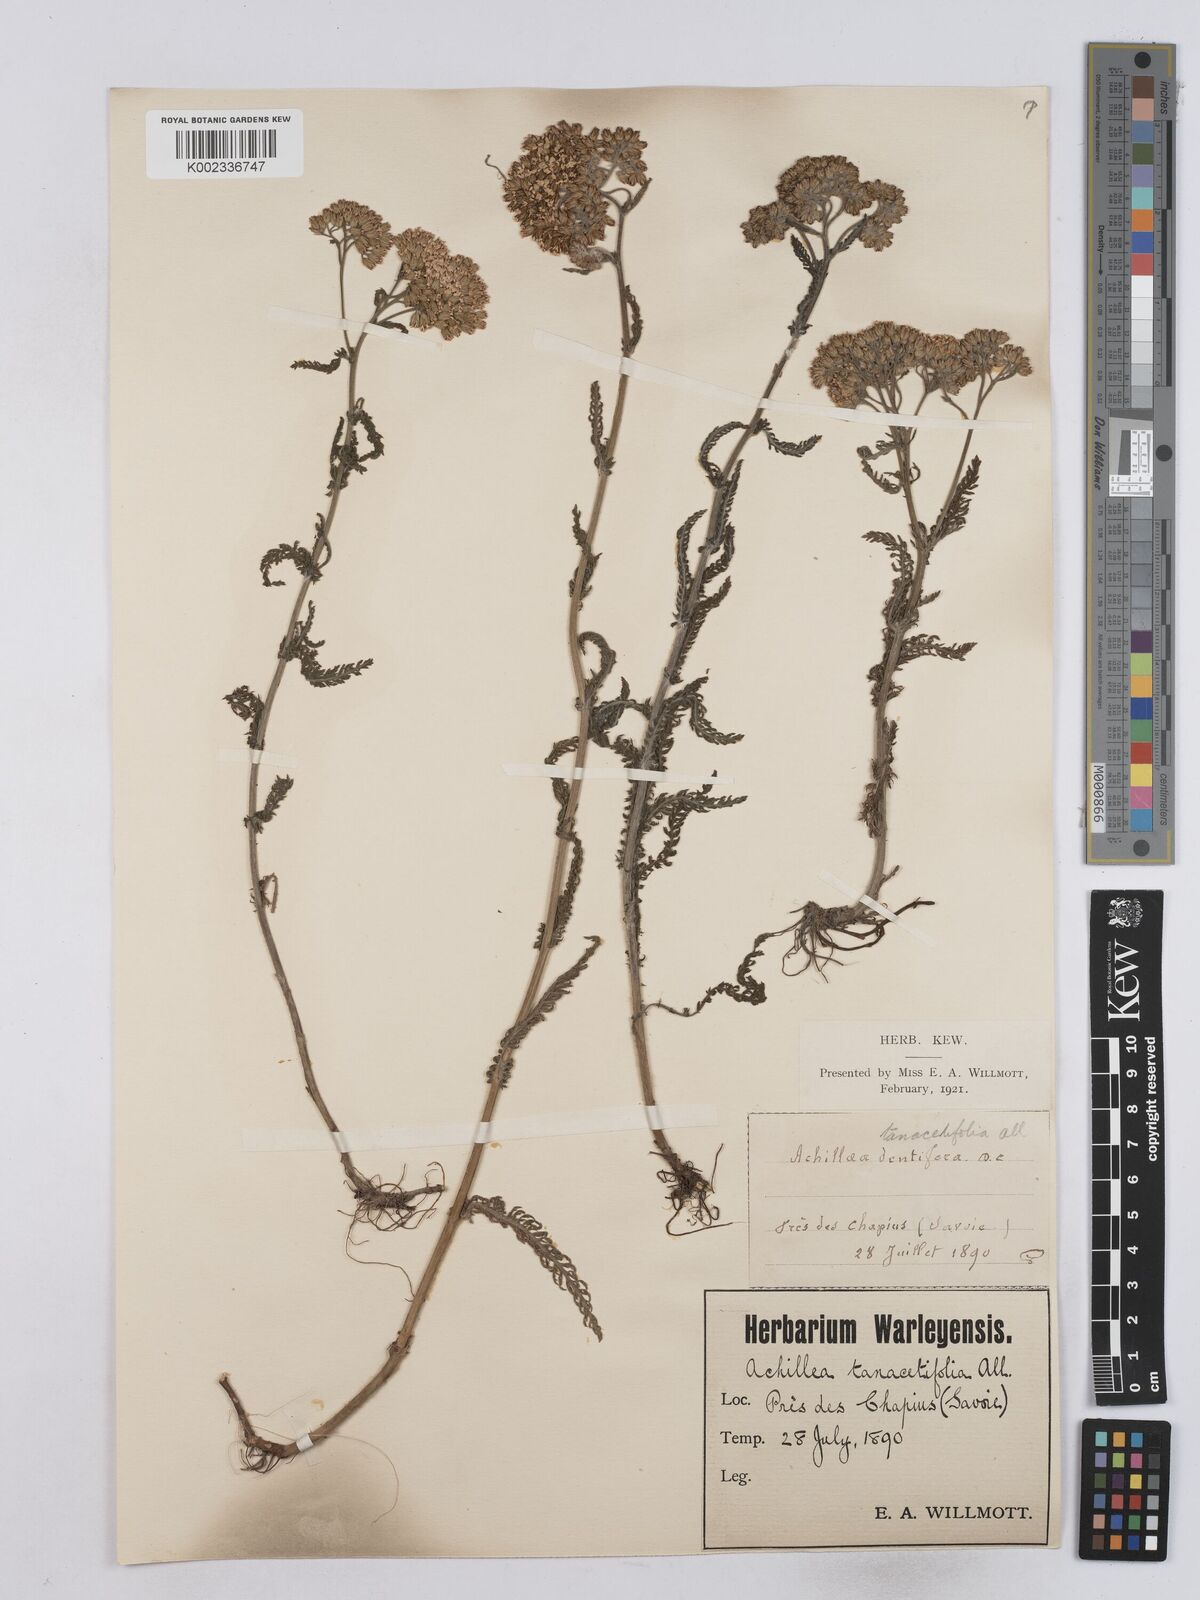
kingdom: Plantae
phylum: Tracheophyta
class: Magnoliopsida
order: Asterales
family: Asteraceae
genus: Achillea
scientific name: Achillea collina
